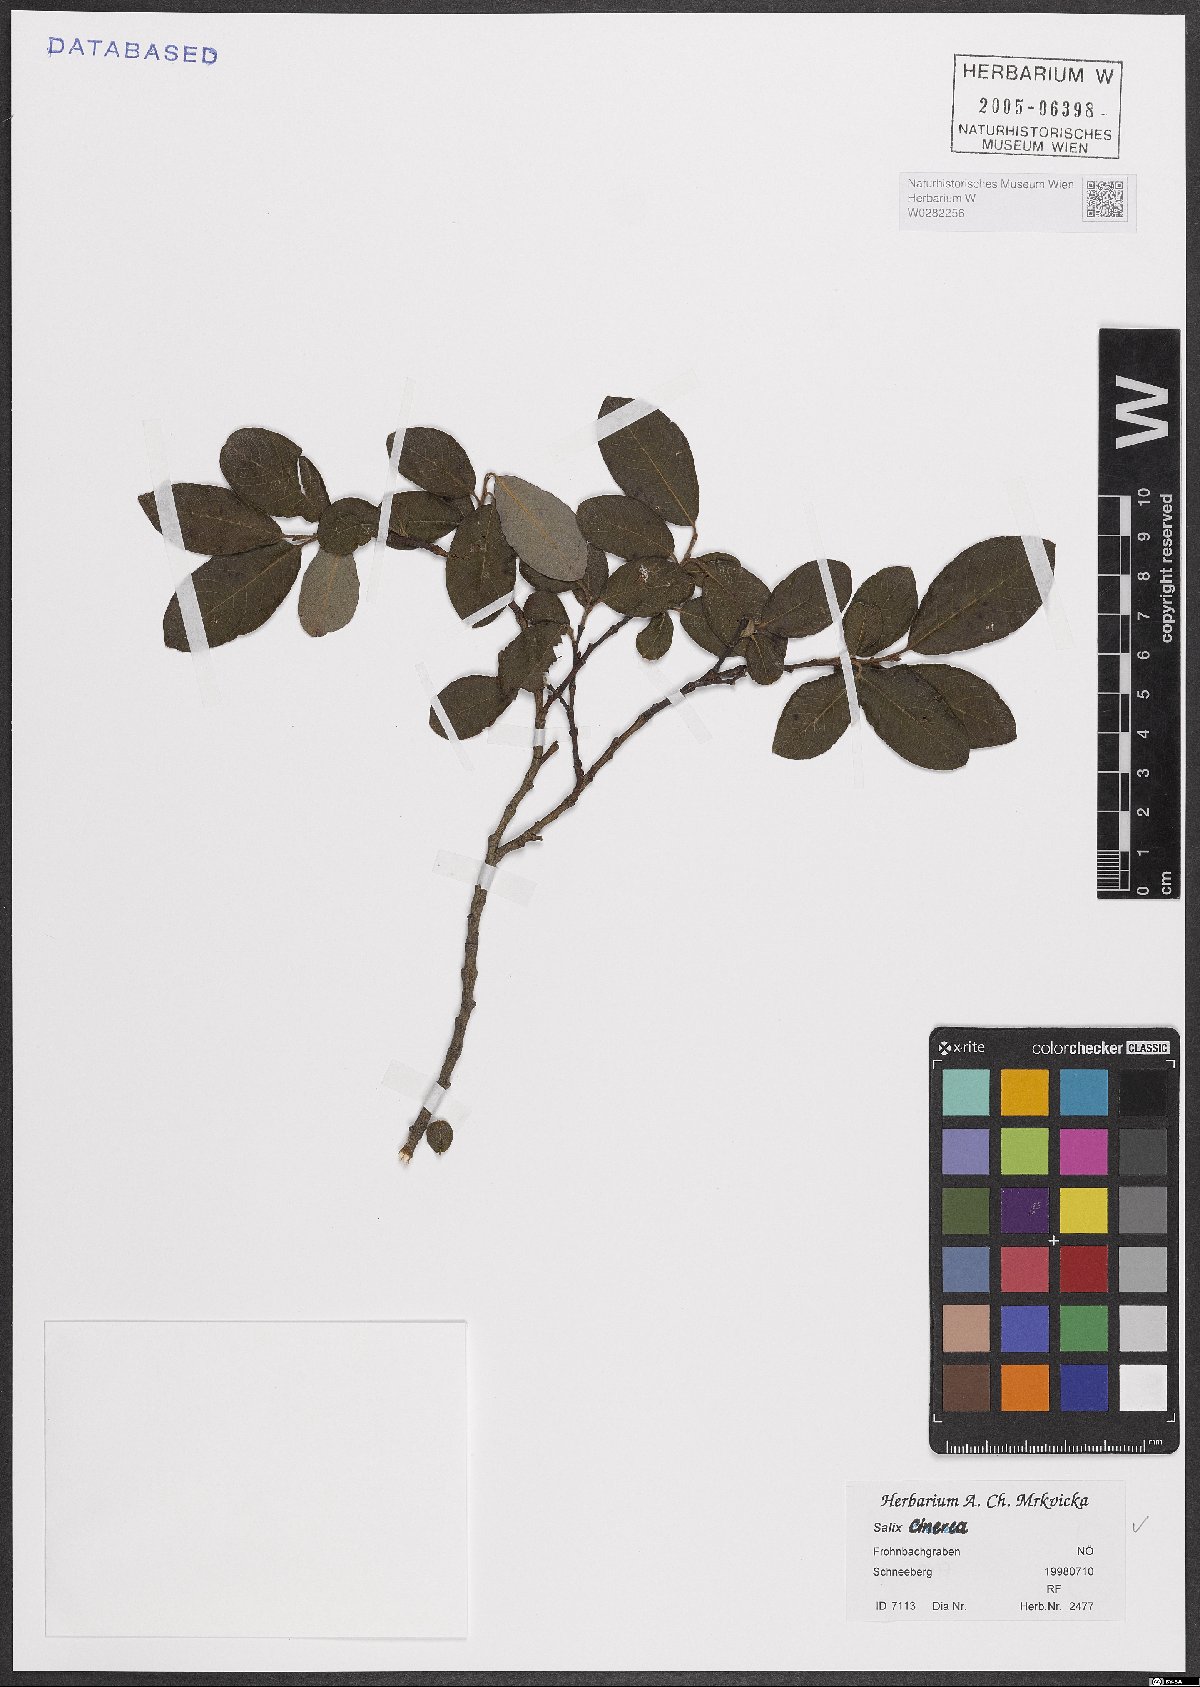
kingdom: Plantae
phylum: Tracheophyta
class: Magnoliopsida
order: Malpighiales
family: Salicaceae
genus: Salix
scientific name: Salix cinerea
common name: Common sallow
